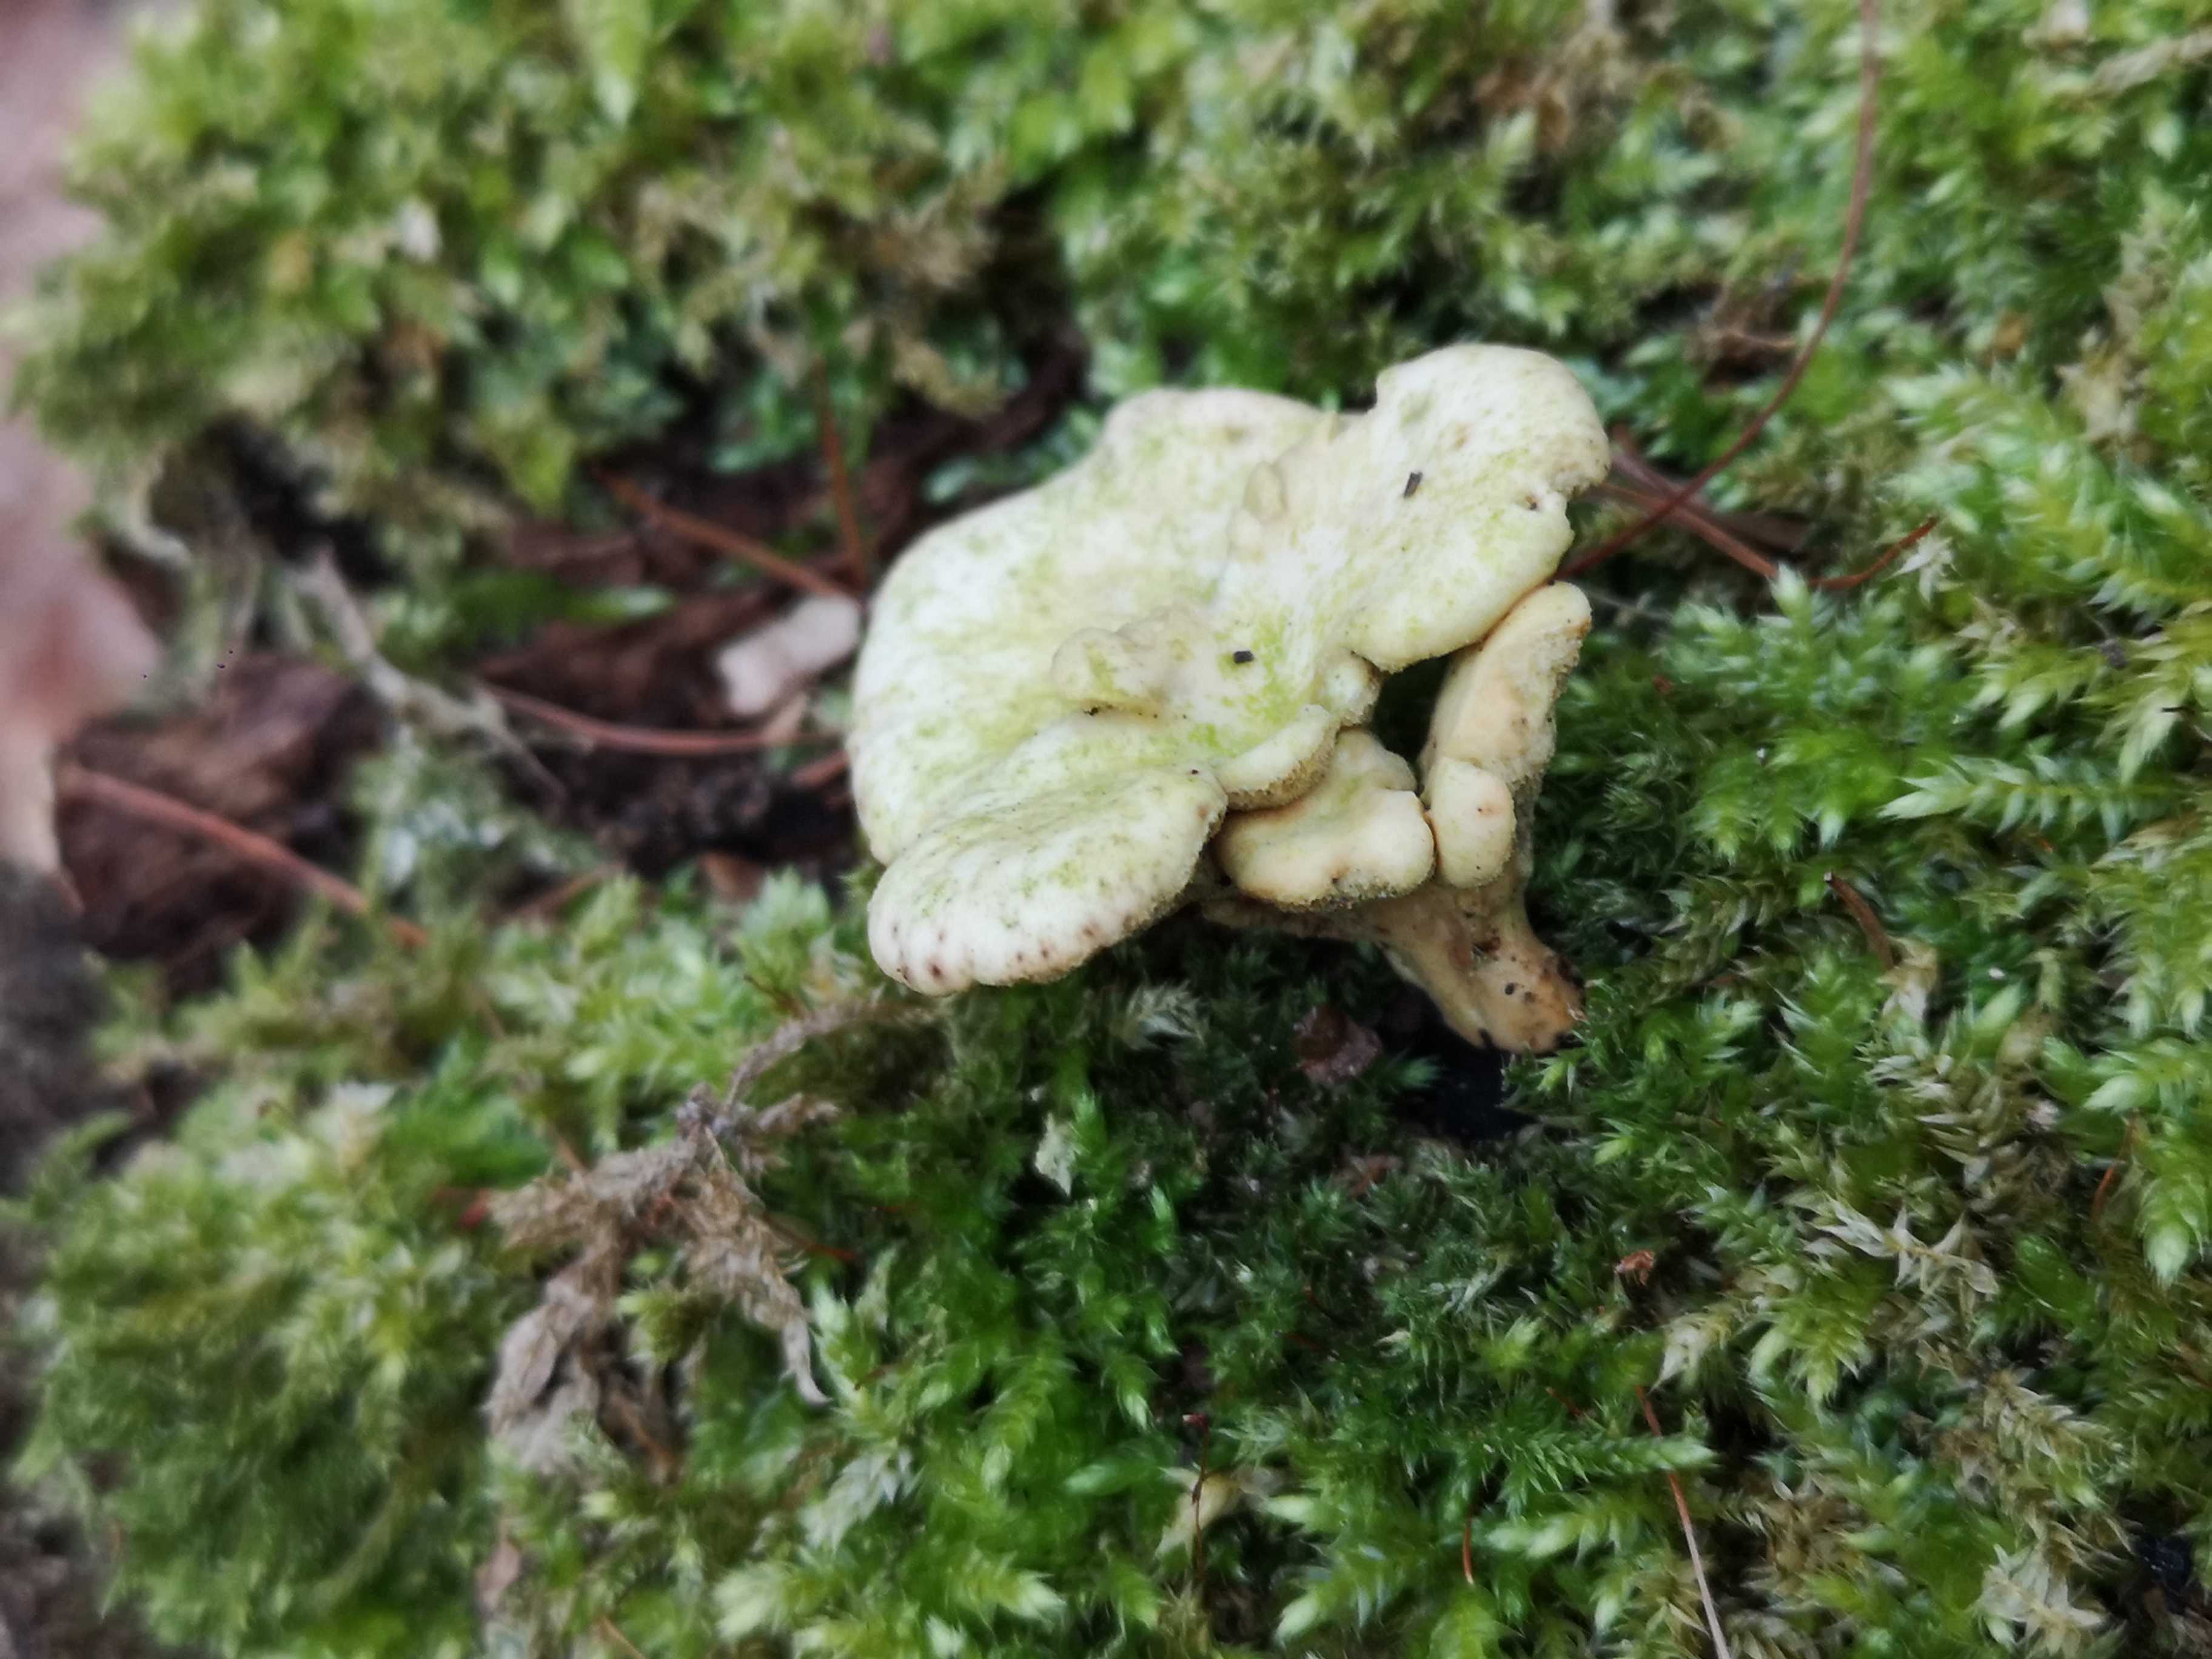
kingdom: Fungi
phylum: Basidiomycota
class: Agaricomycetes
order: Polyporales
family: Polyporaceae
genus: Cerioporus
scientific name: Cerioporus varius
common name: foranderlig stilkporesvamp
